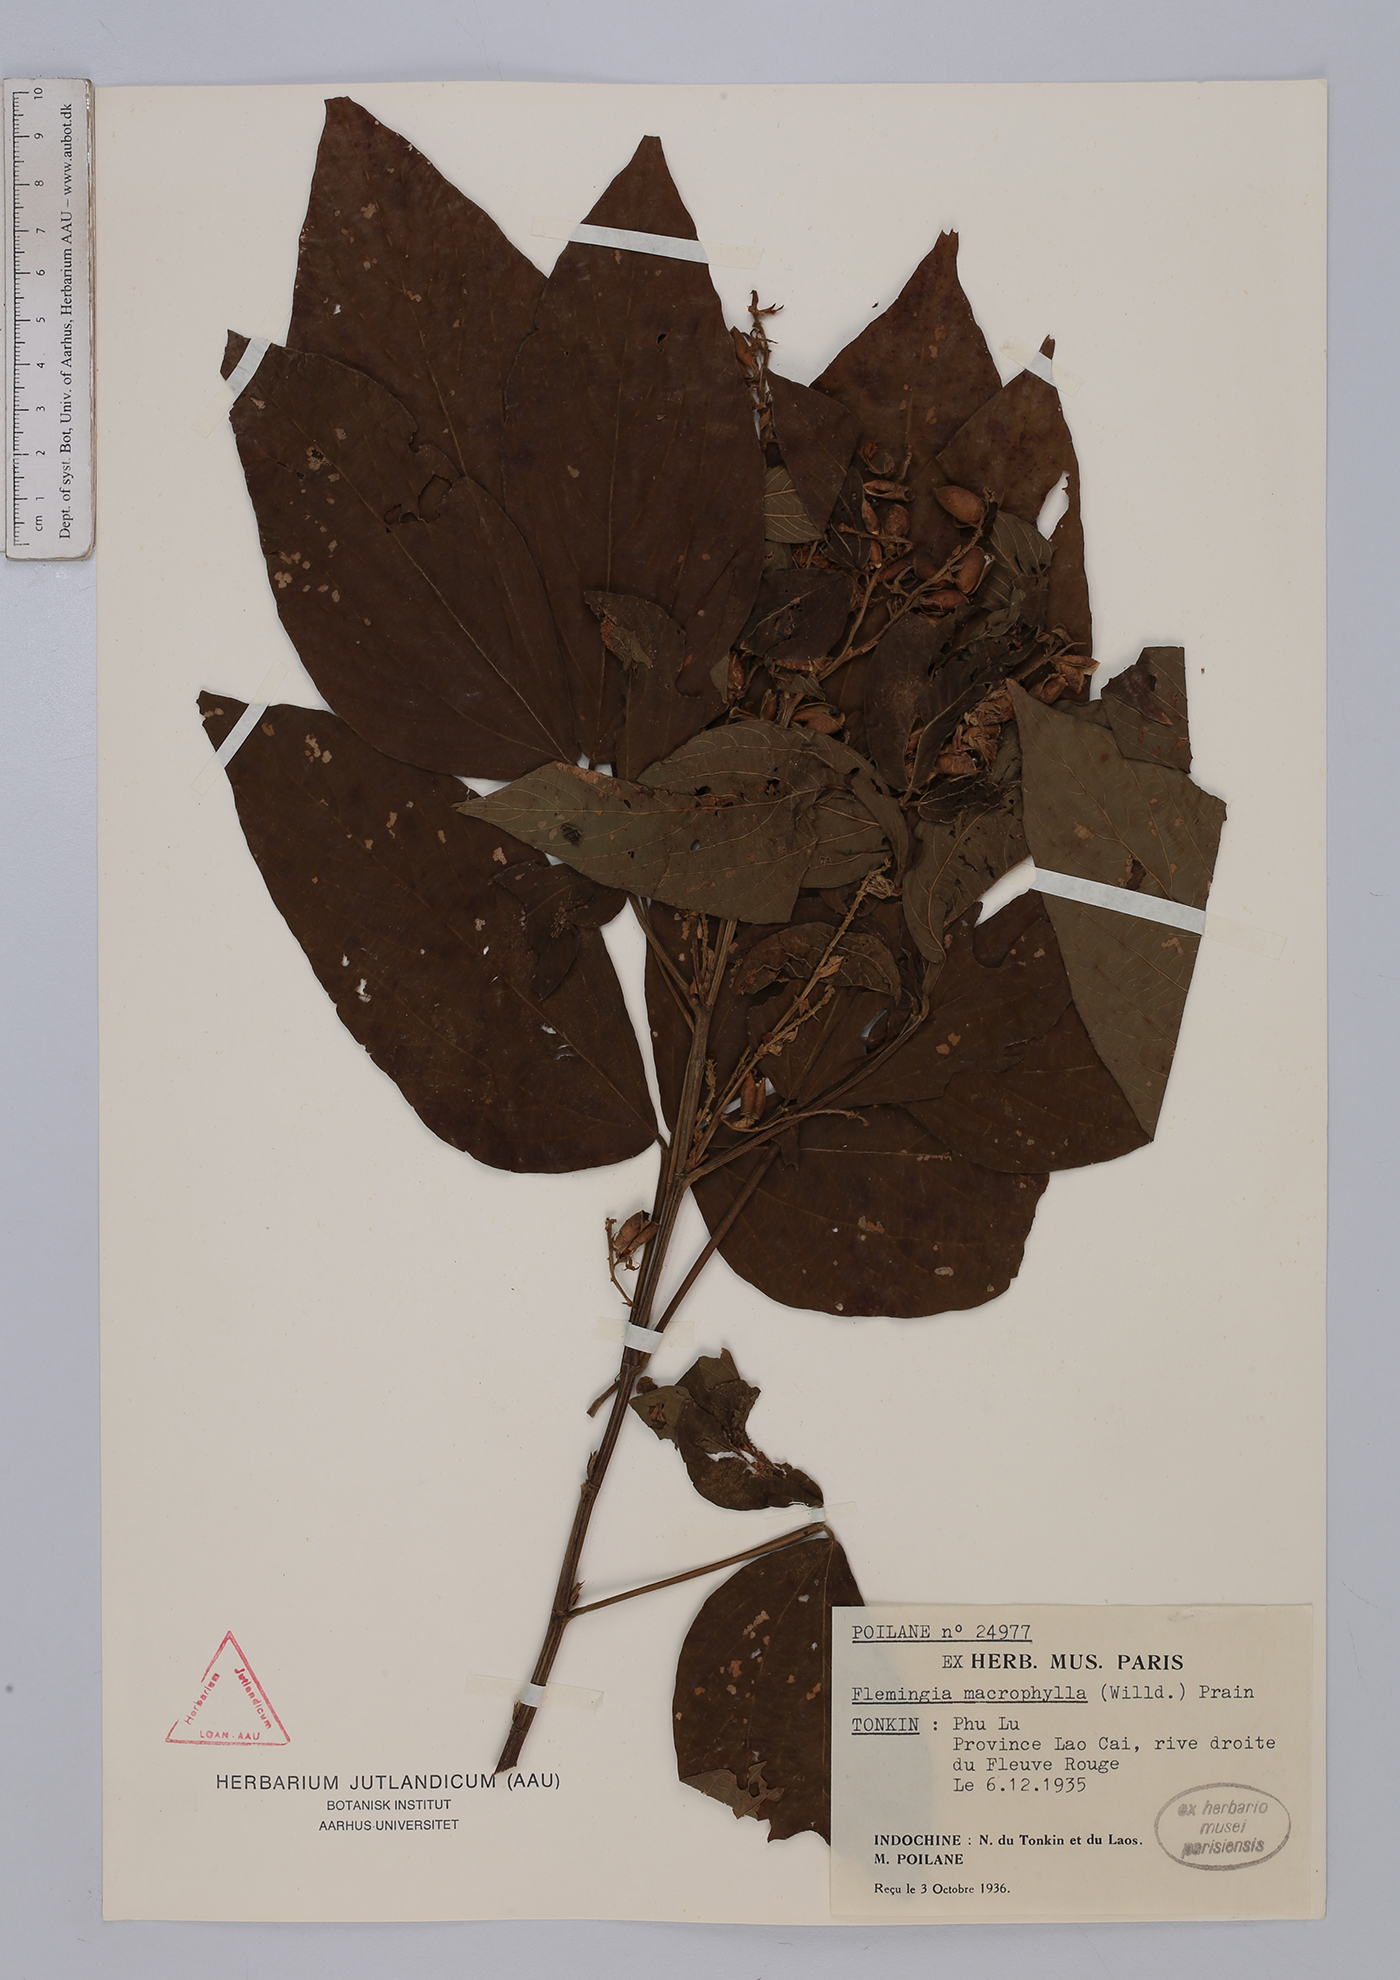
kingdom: Plantae
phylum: Tracheophyta
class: Magnoliopsida
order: Fabales
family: Fabaceae
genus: Flemingia
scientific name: Flemingia macrophylla
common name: Flemingia
